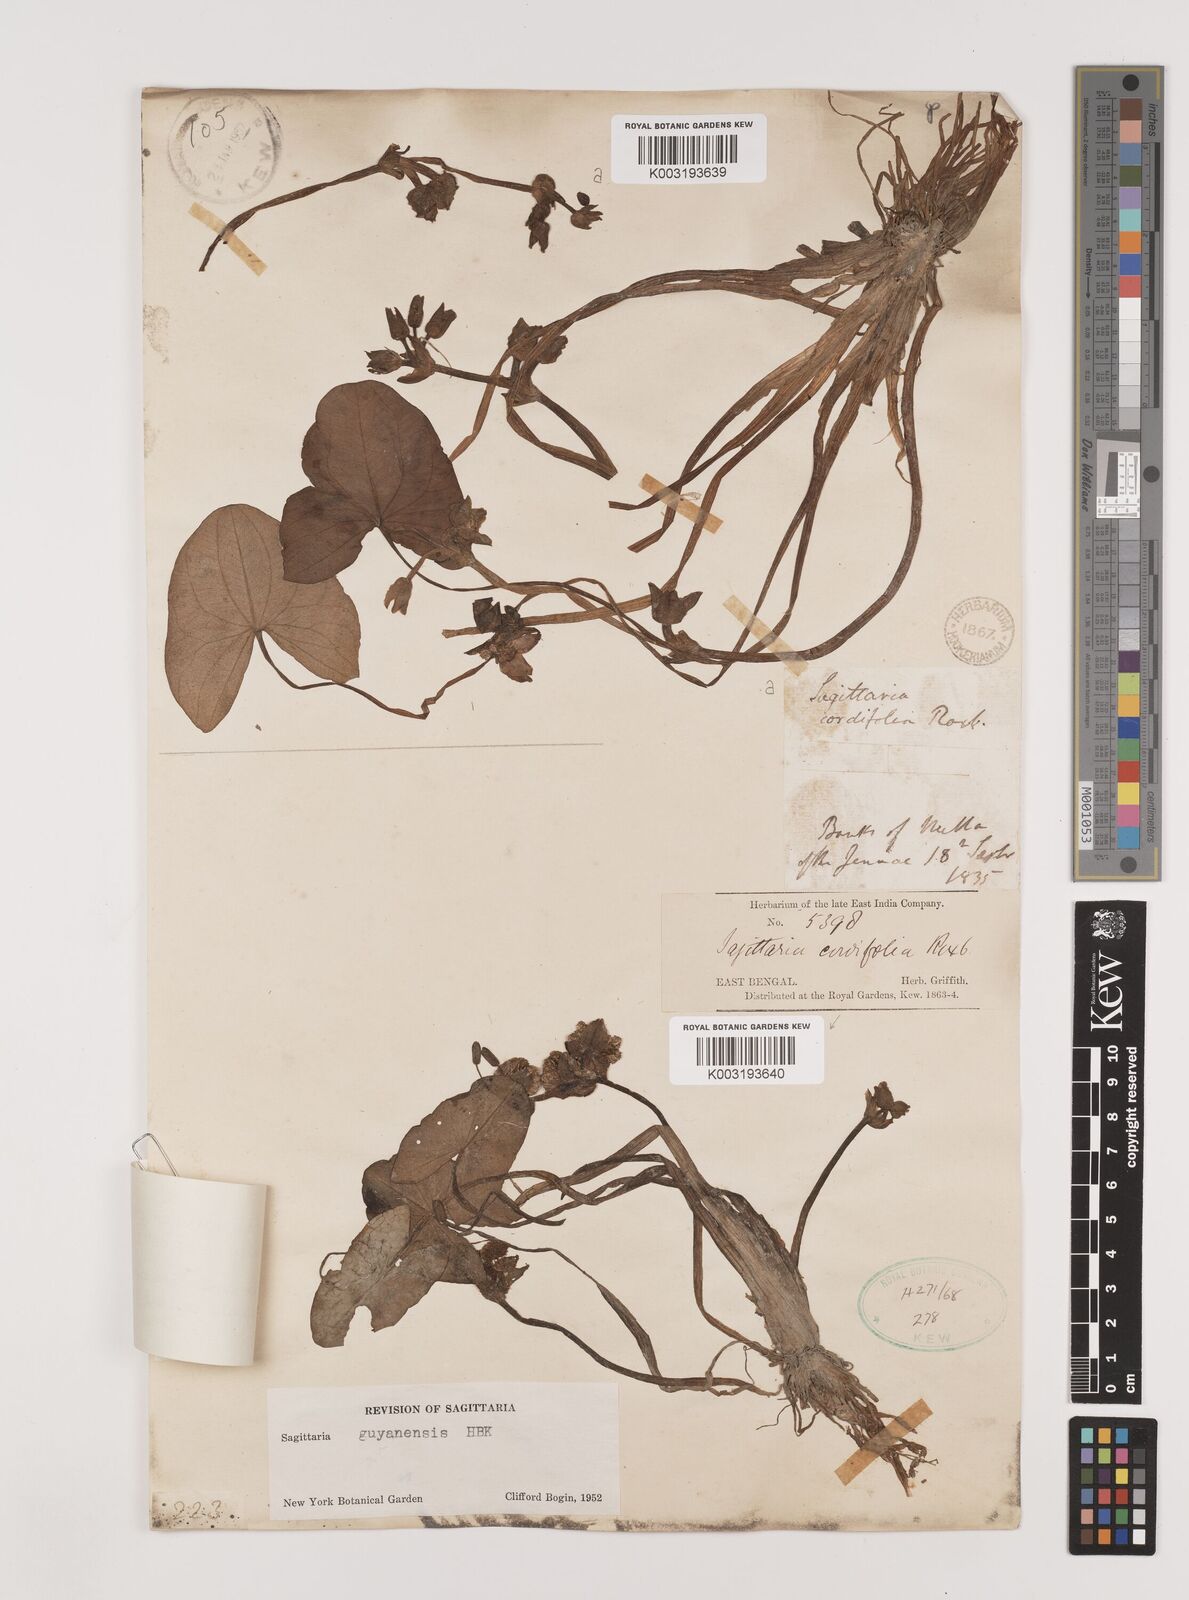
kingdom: Plantae
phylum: Tracheophyta
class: Liliopsida
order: Alismatales
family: Alismataceae
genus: Sagittaria
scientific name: Sagittaria guayanensis
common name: Guyanese arrowhead
